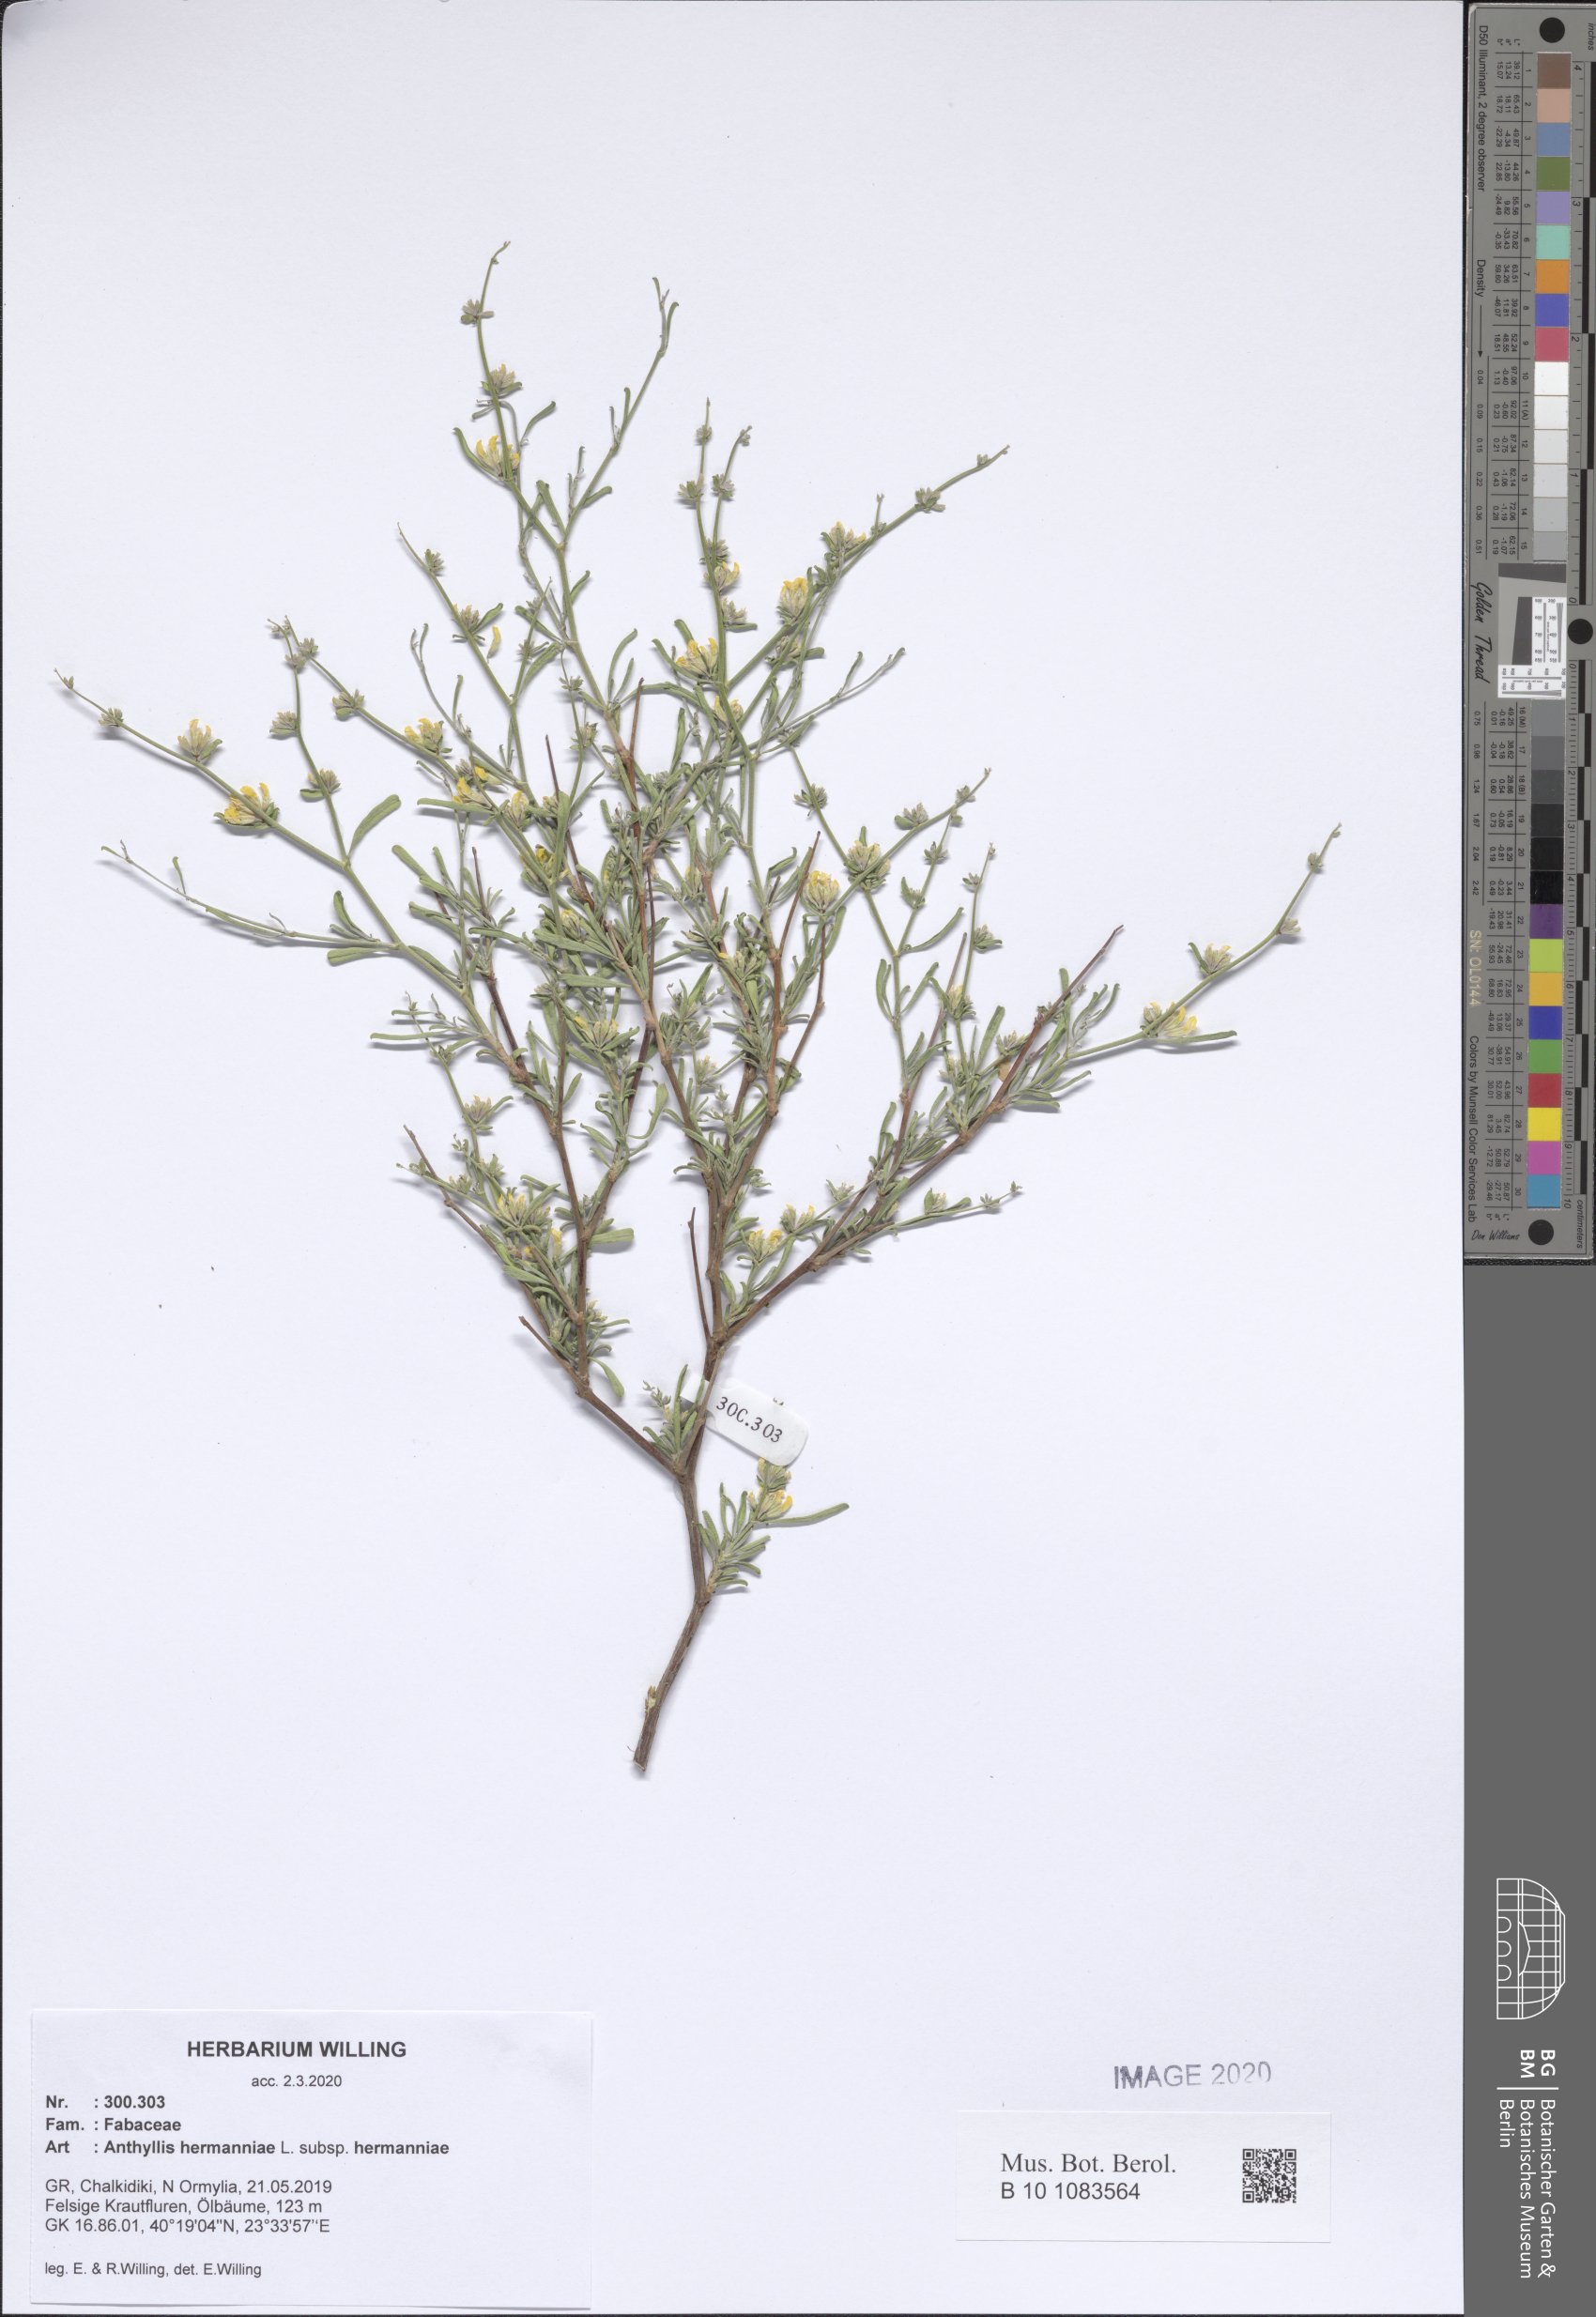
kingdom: Plantae
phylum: Tracheophyta
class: Magnoliopsida
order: Fabales
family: Fabaceae
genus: Anthyllis
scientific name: Anthyllis hermanniae
